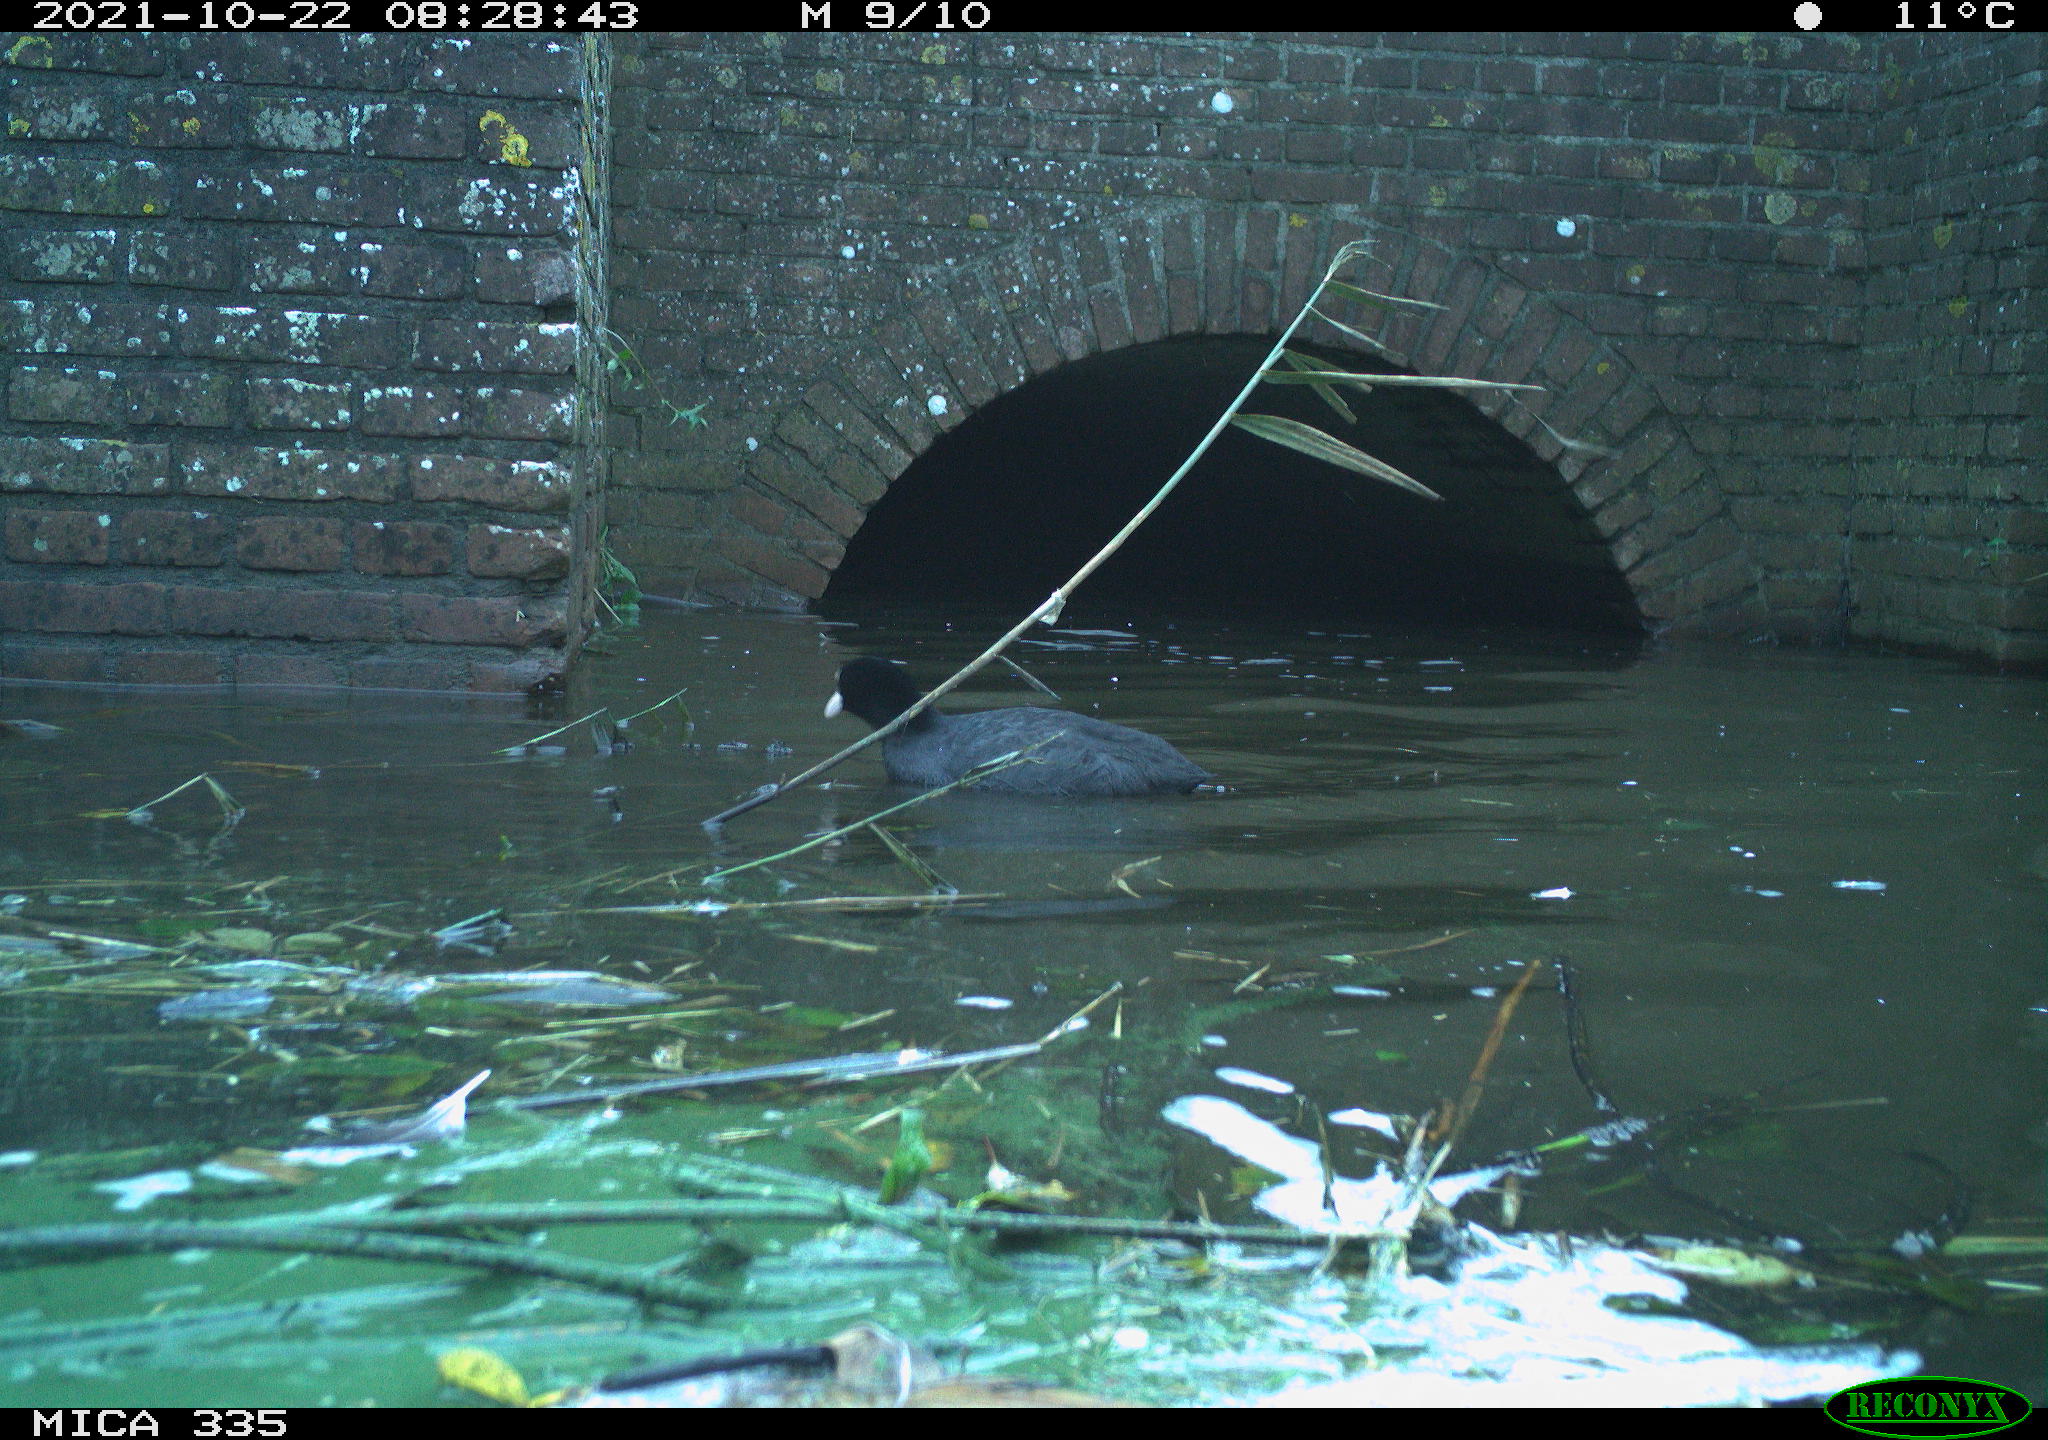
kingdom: Animalia
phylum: Chordata
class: Aves
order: Gruiformes
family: Rallidae
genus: Fulica
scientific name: Fulica atra
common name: Eurasian coot
